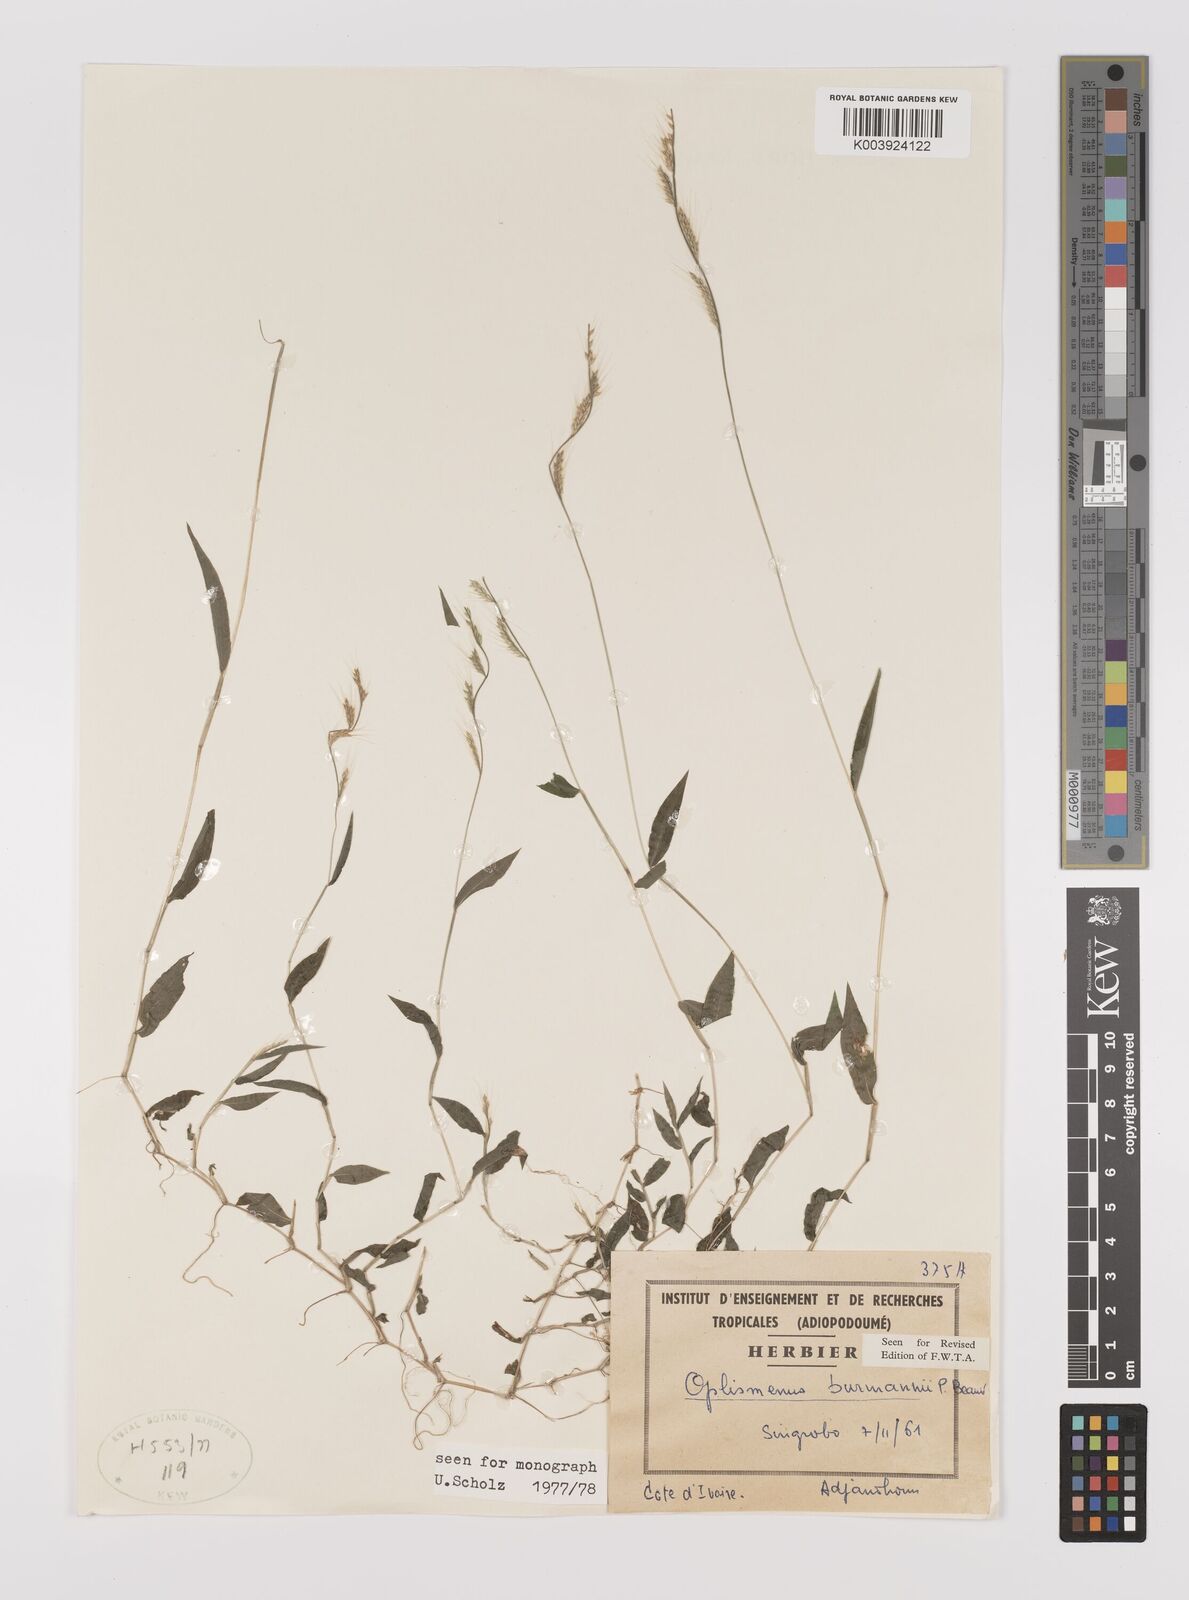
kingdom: Plantae
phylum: Tracheophyta
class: Liliopsida
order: Poales
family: Poaceae
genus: Oplismenus
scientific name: Oplismenus
